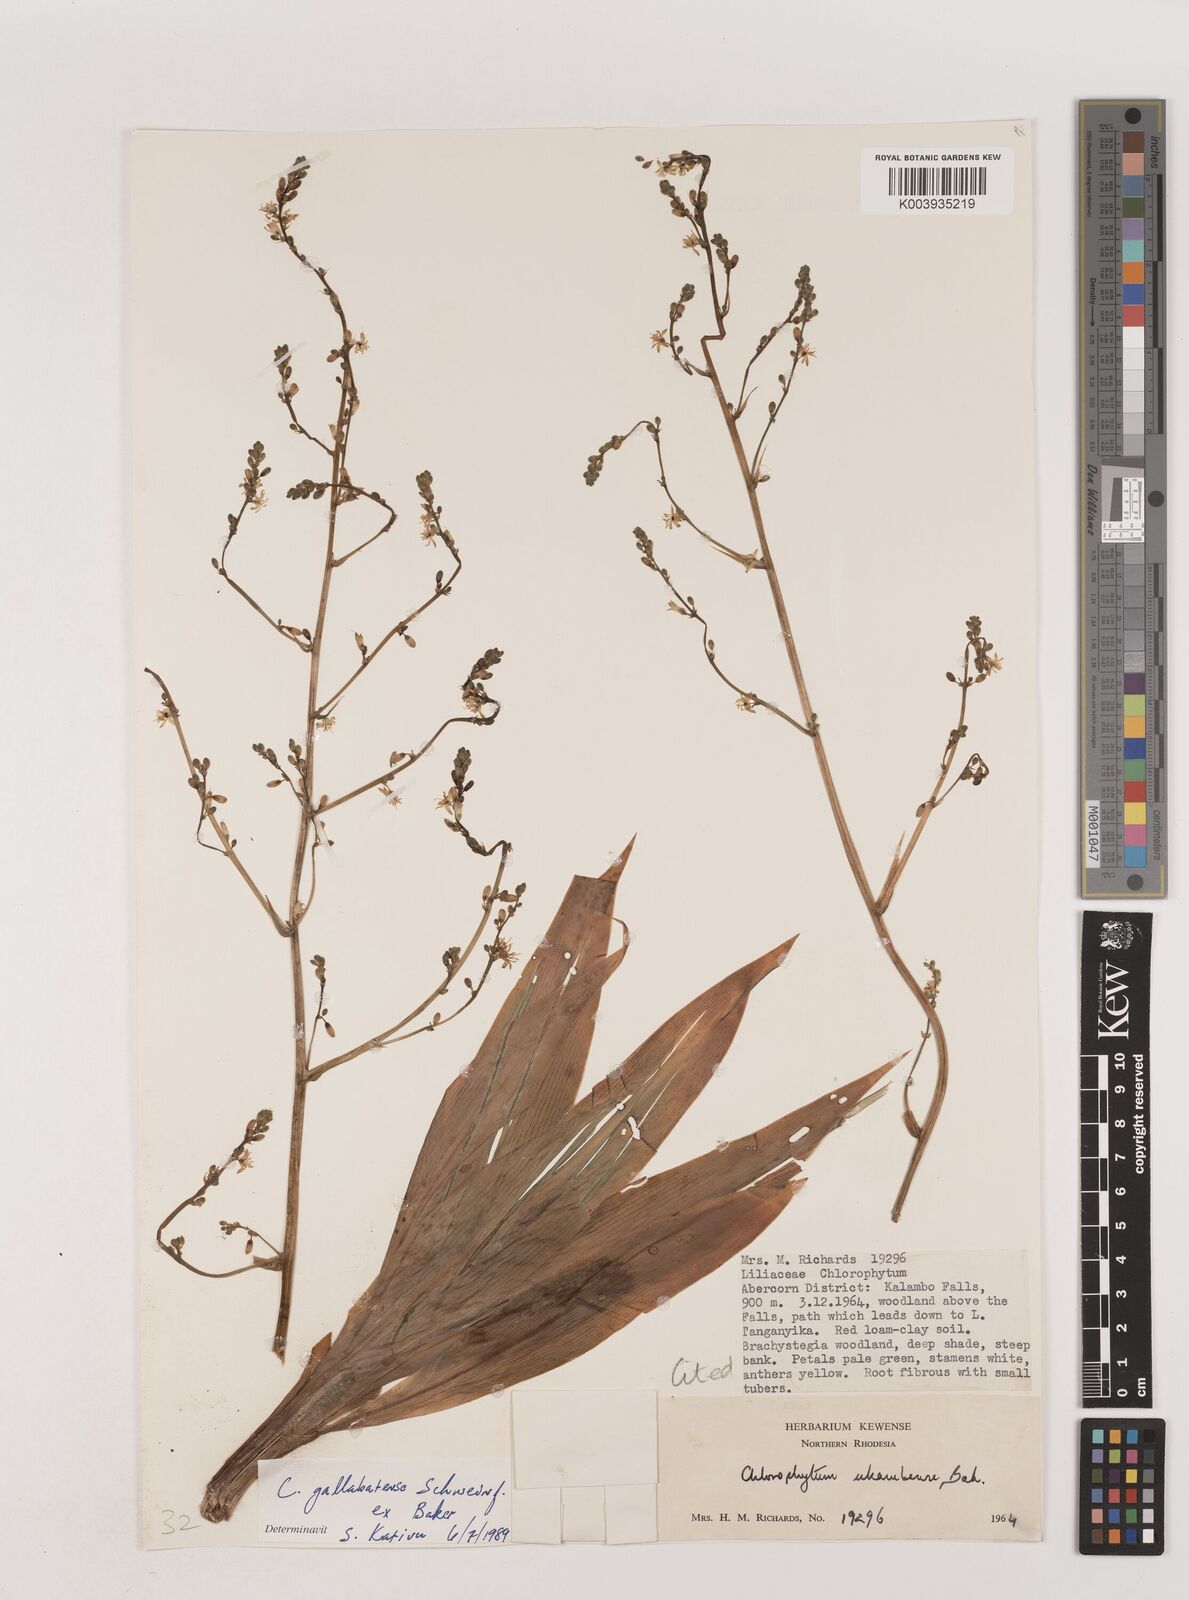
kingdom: Plantae
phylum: Tracheophyta
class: Liliopsida
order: Asparagales
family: Asparagaceae
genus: Chlorophytum
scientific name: Chlorophytum gallabatense
